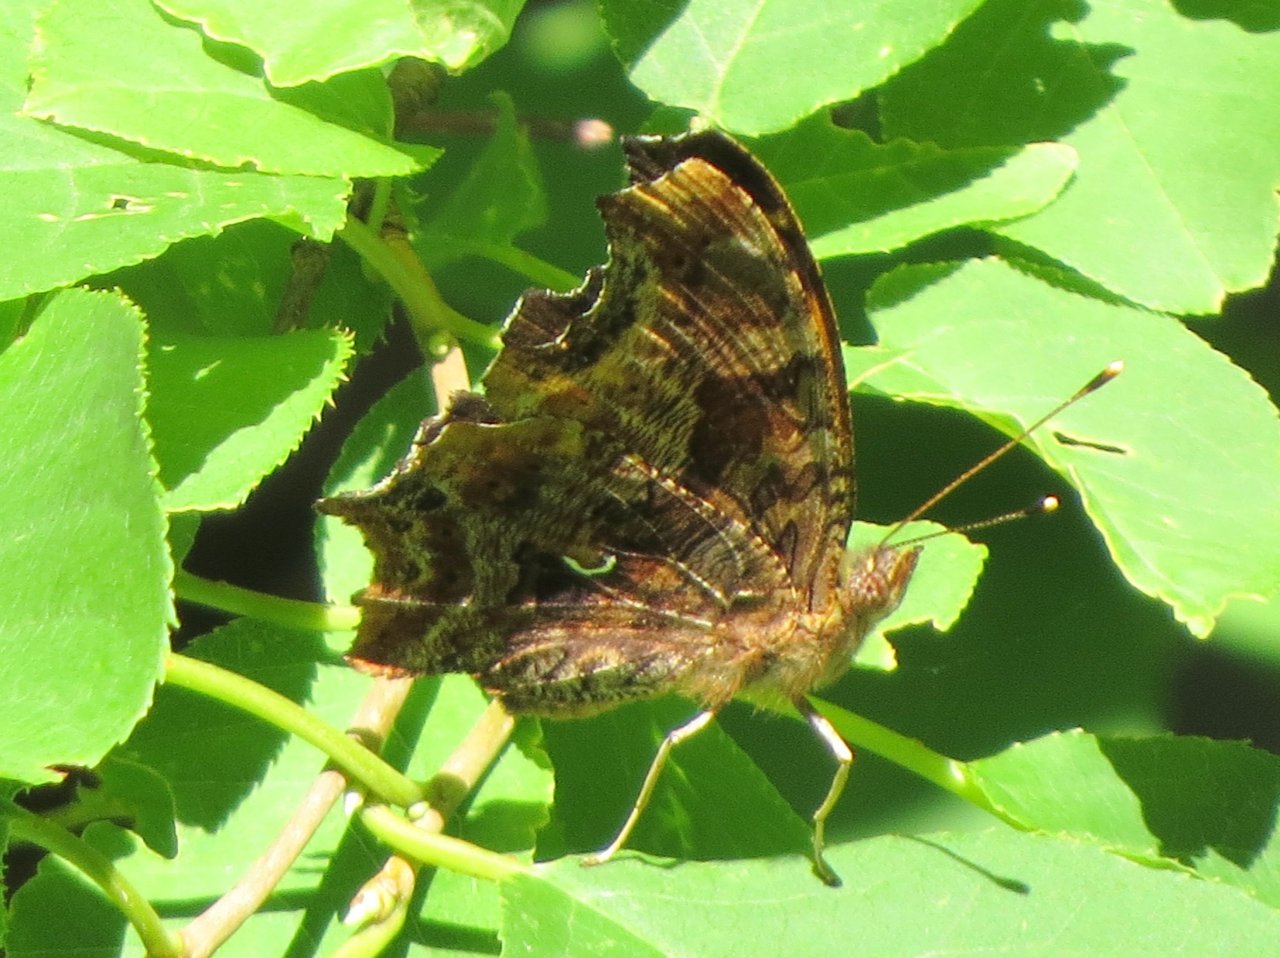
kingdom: Animalia
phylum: Arthropoda
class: Insecta
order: Lepidoptera
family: Nymphalidae
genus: Polygonia
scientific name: Polygonia comma
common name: Eastern Comma
